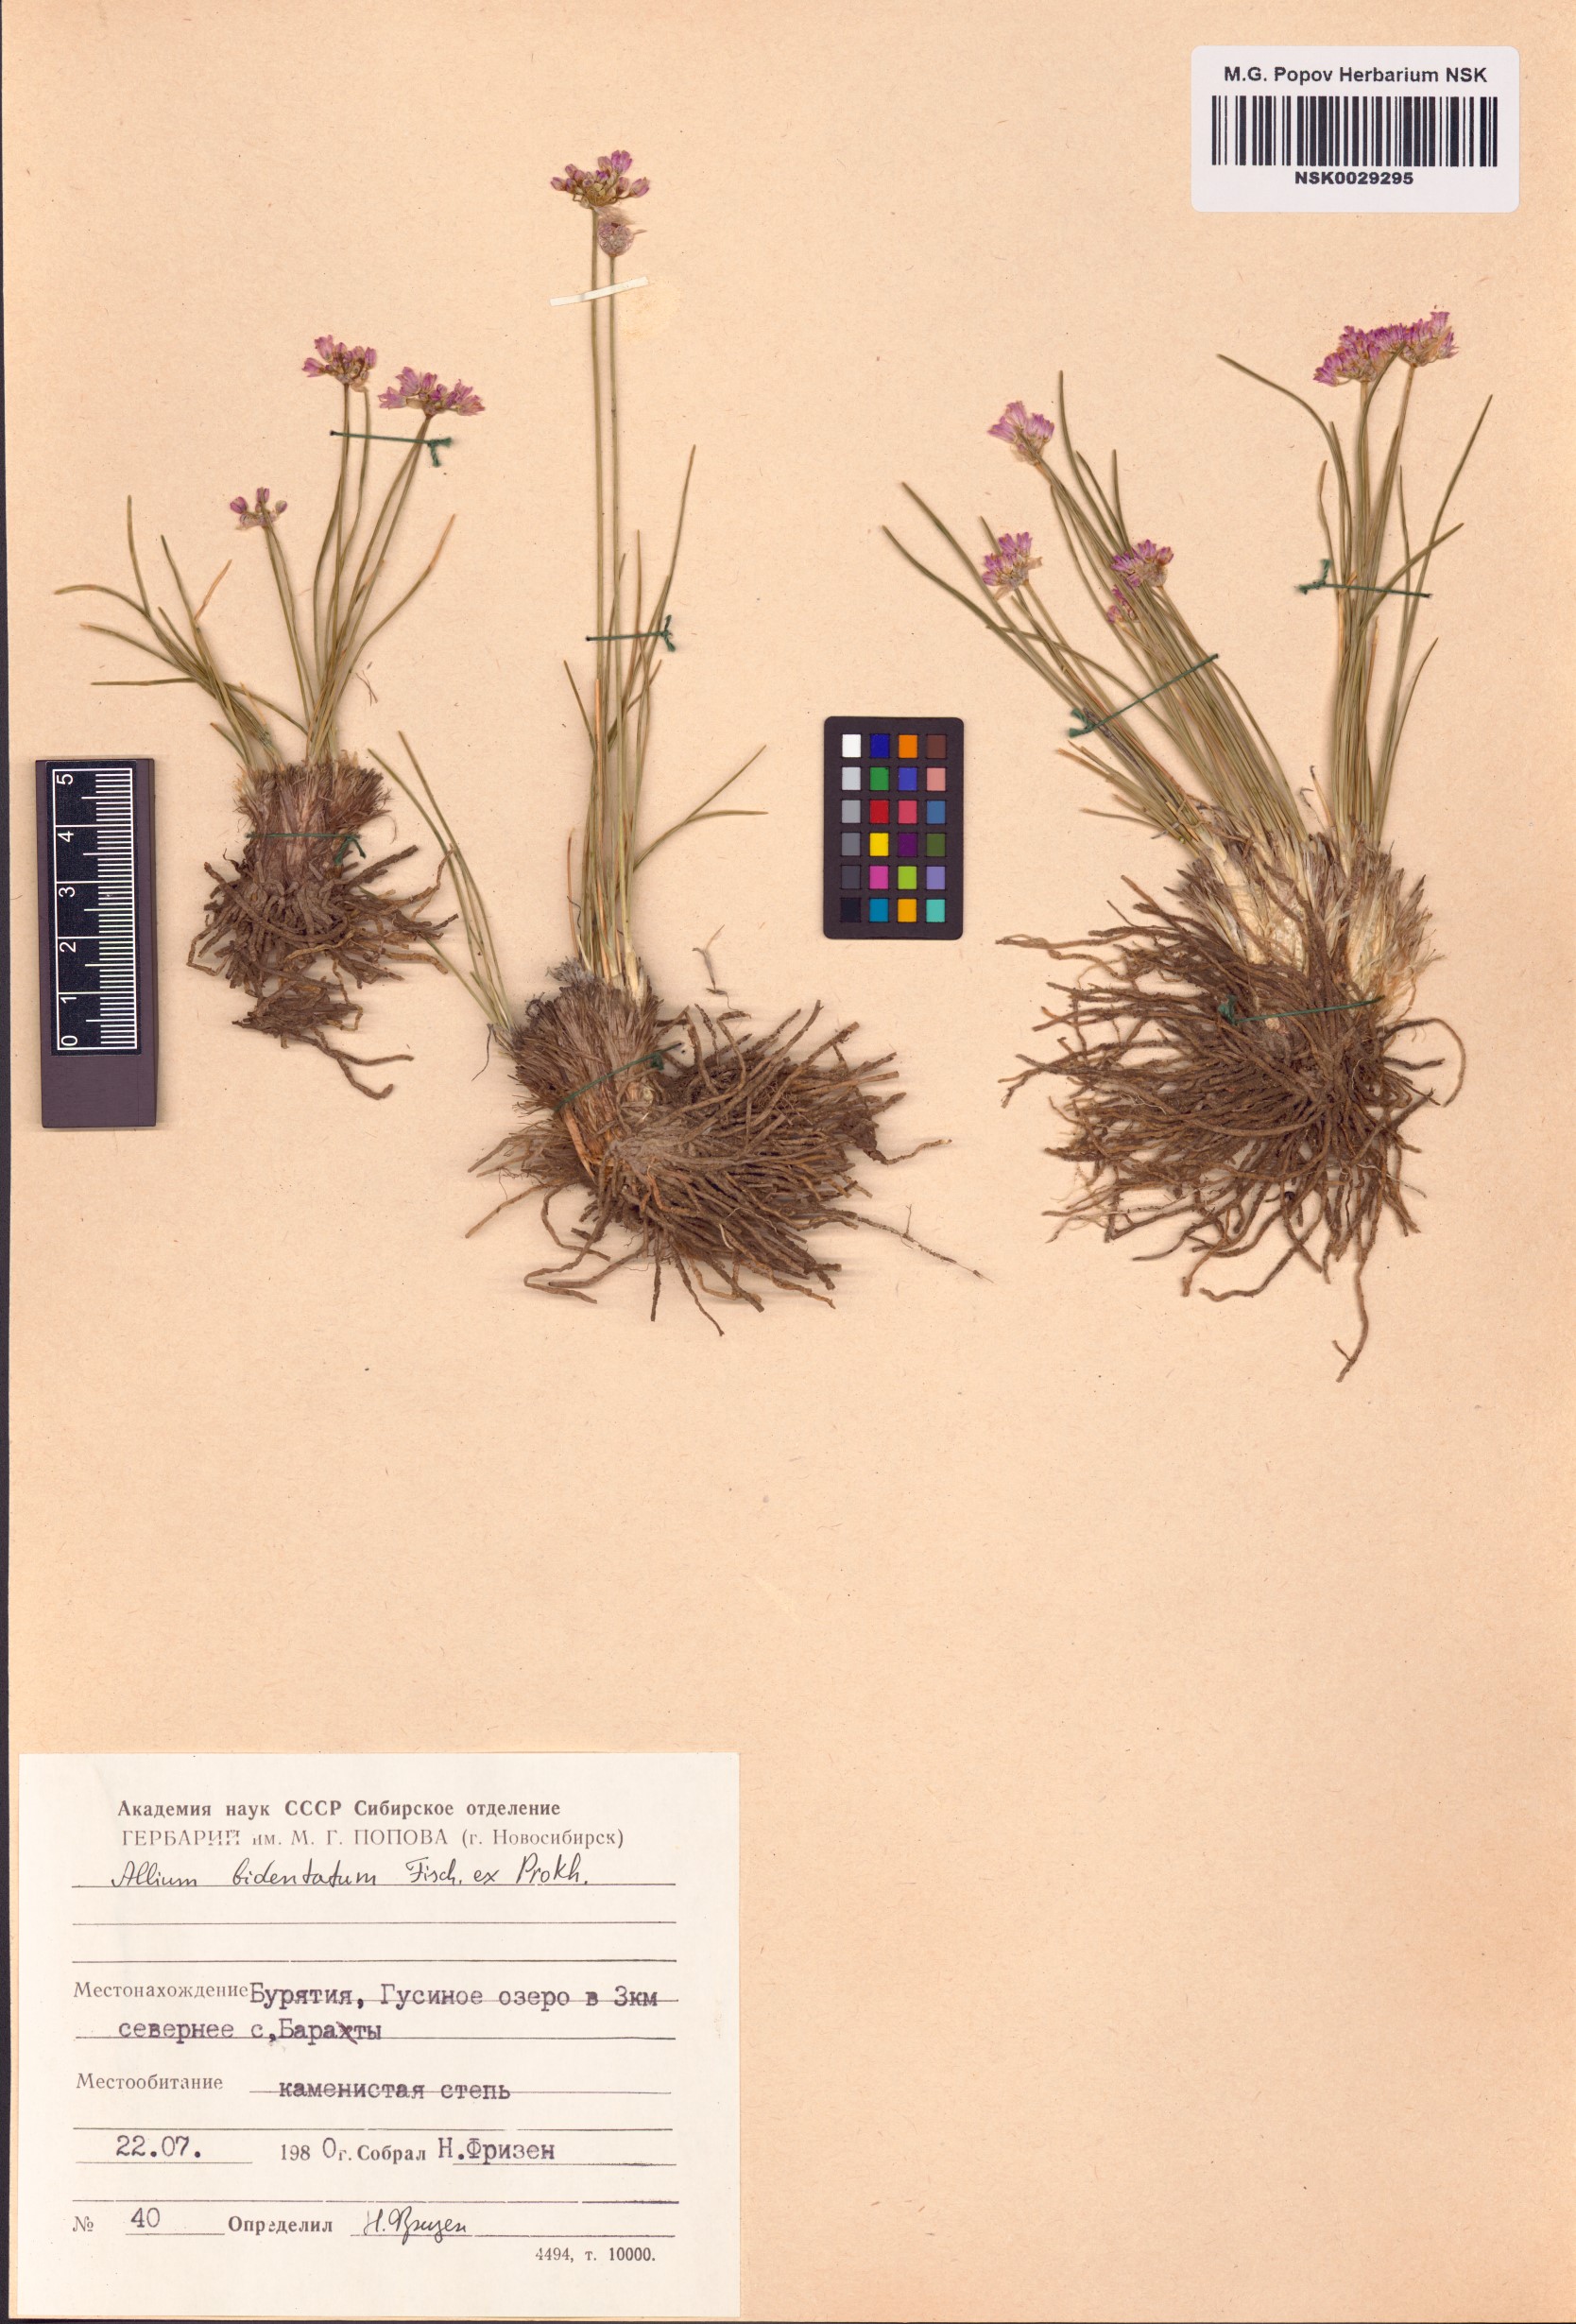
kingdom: Plantae
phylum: Tracheophyta
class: Liliopsida
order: Asparagales
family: Amaryllidaceae
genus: Allium
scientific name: Allium bidentatum
